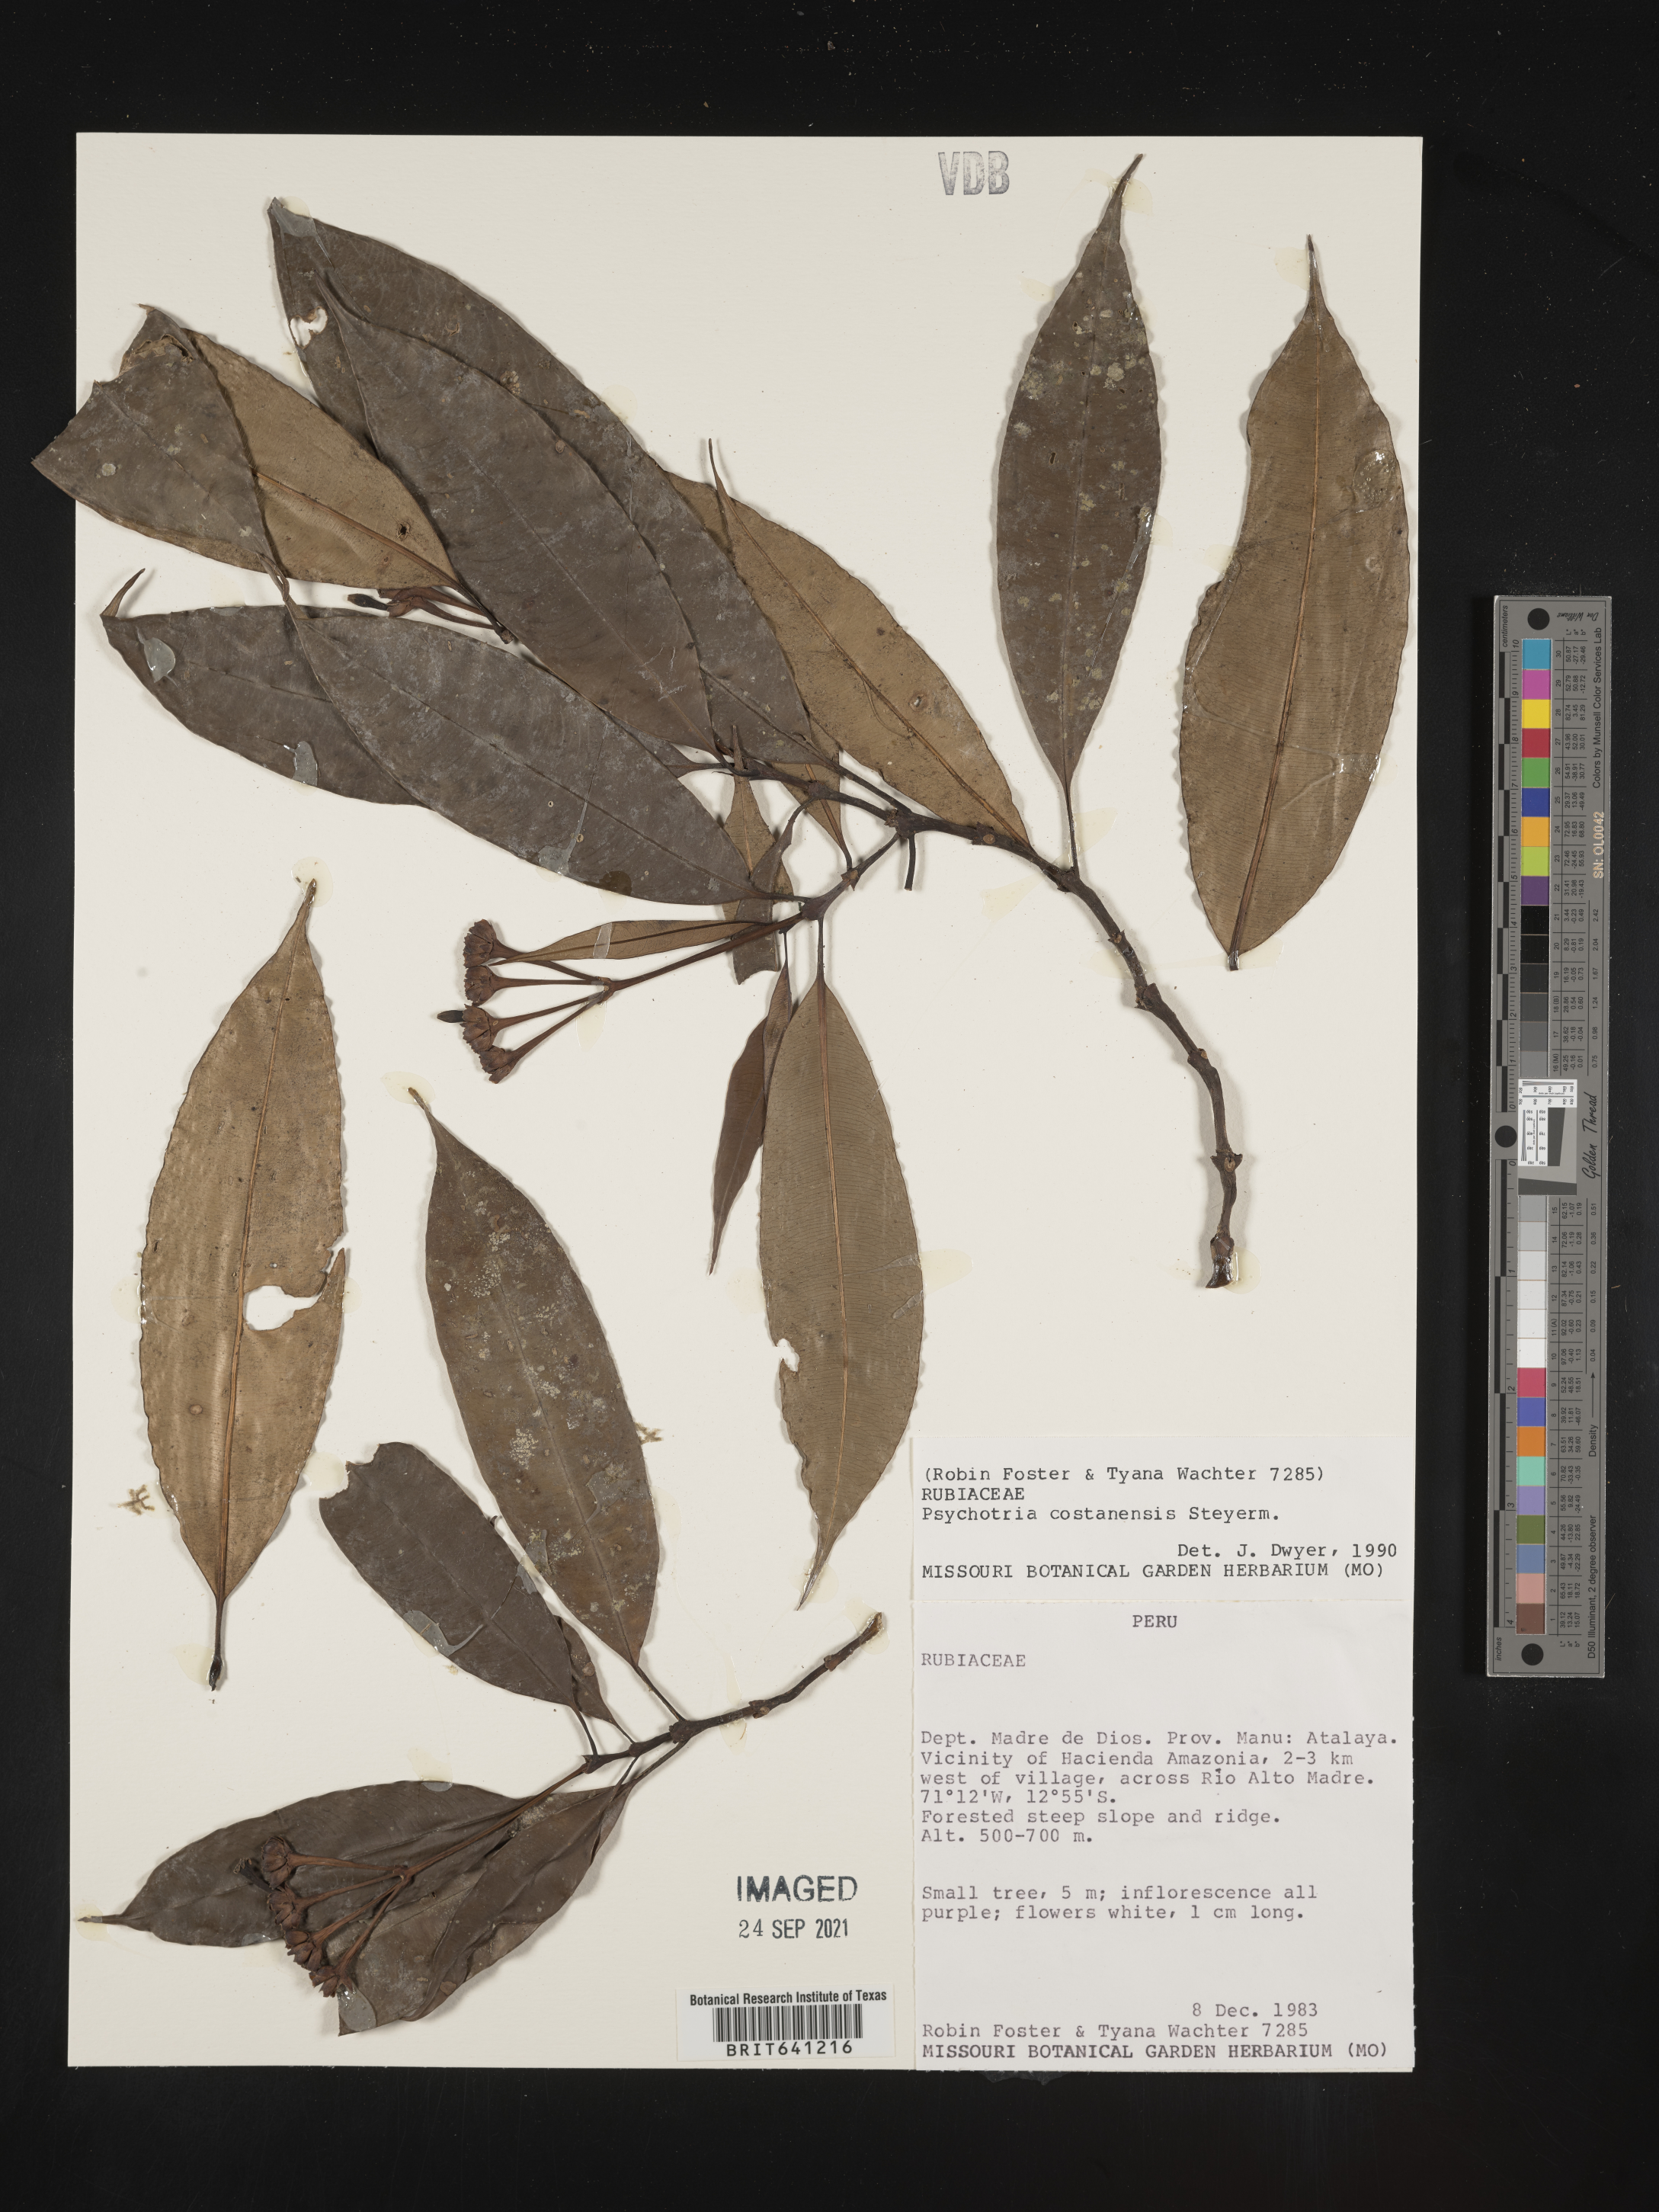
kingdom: Plantae
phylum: Tracheophyta
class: Magnoliopsida
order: Gentianales
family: Rubiaceae
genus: Psychotria
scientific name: Psychotria
